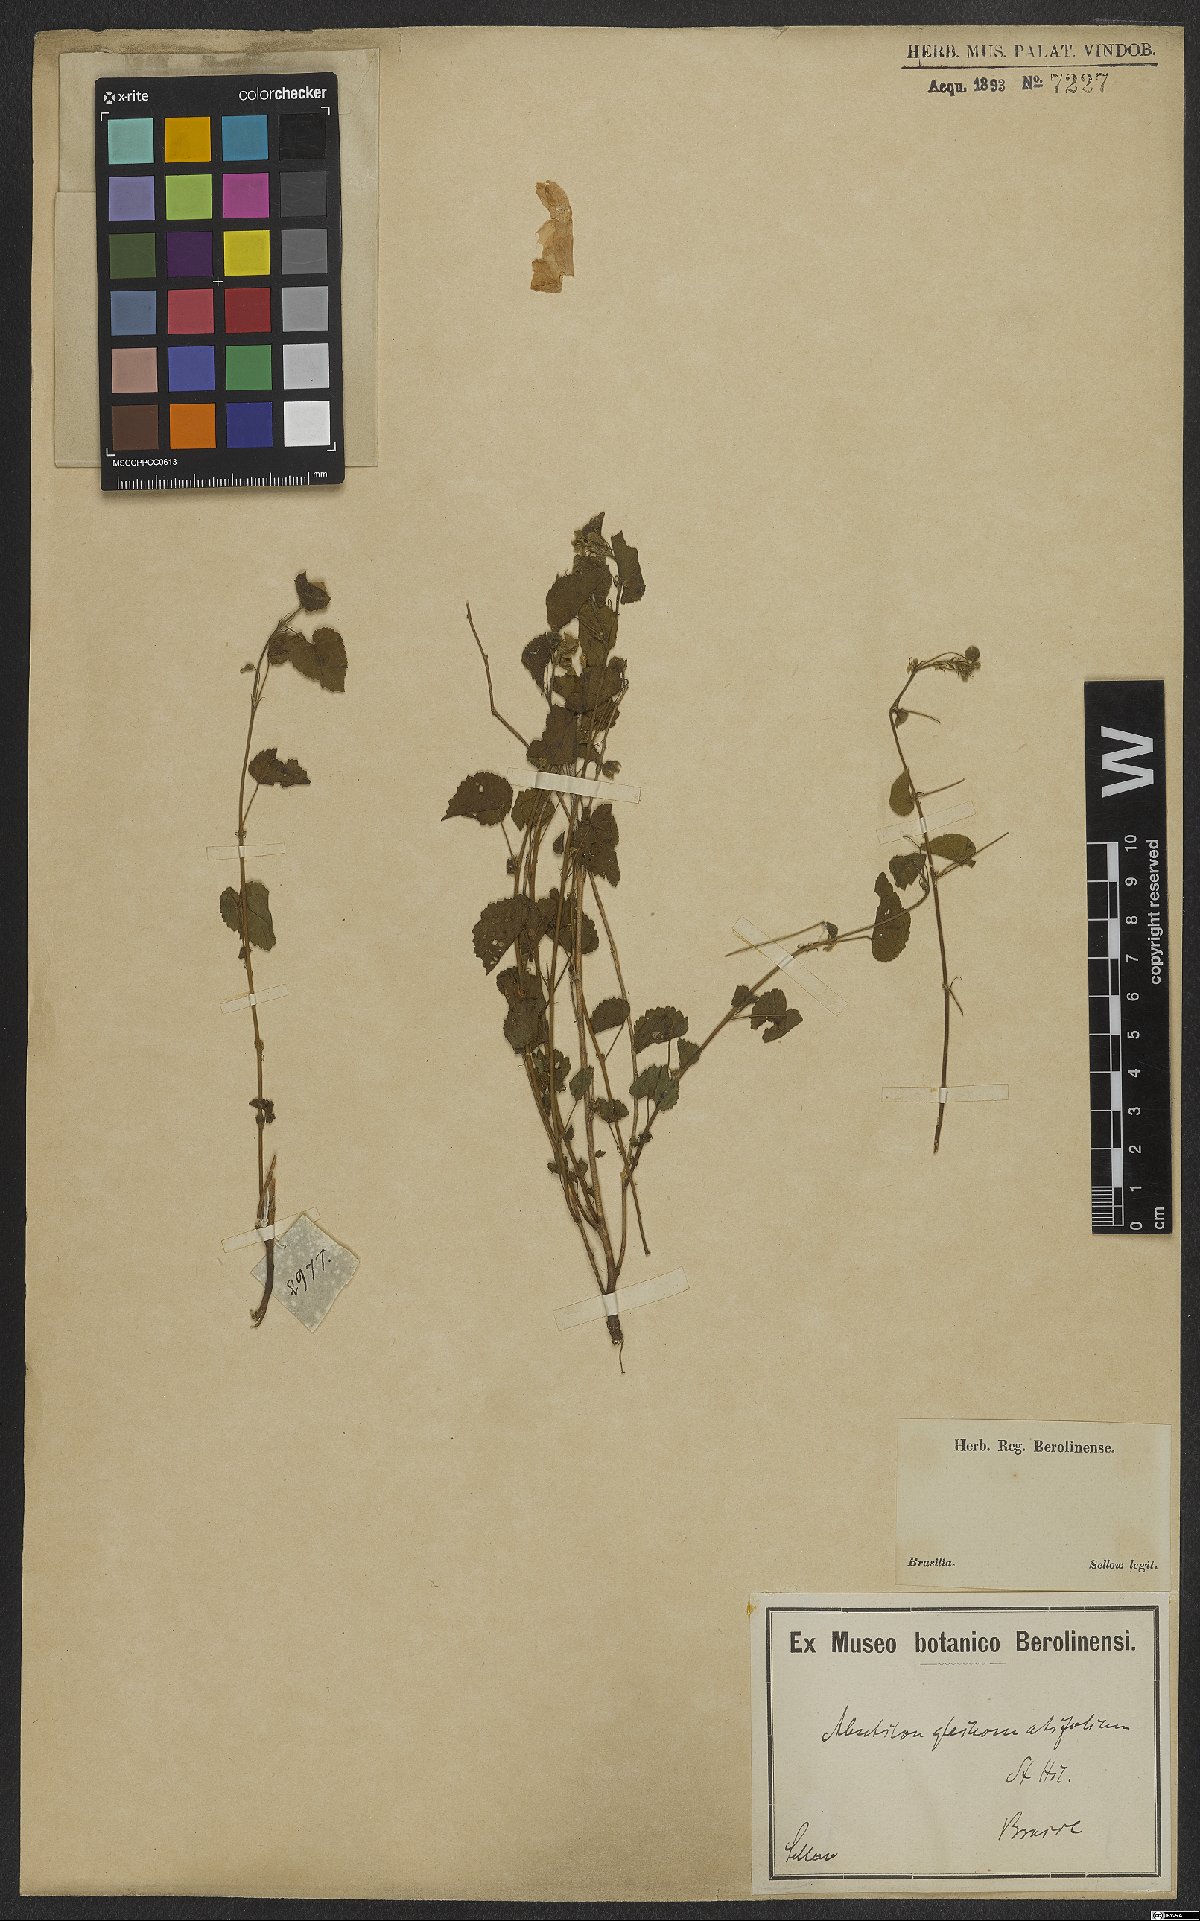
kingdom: Plantae
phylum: Tracheophyta
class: Magnoliopsida
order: Malvales
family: Malvaceae
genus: Wissadula
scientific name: Wissadula glechomifolia
